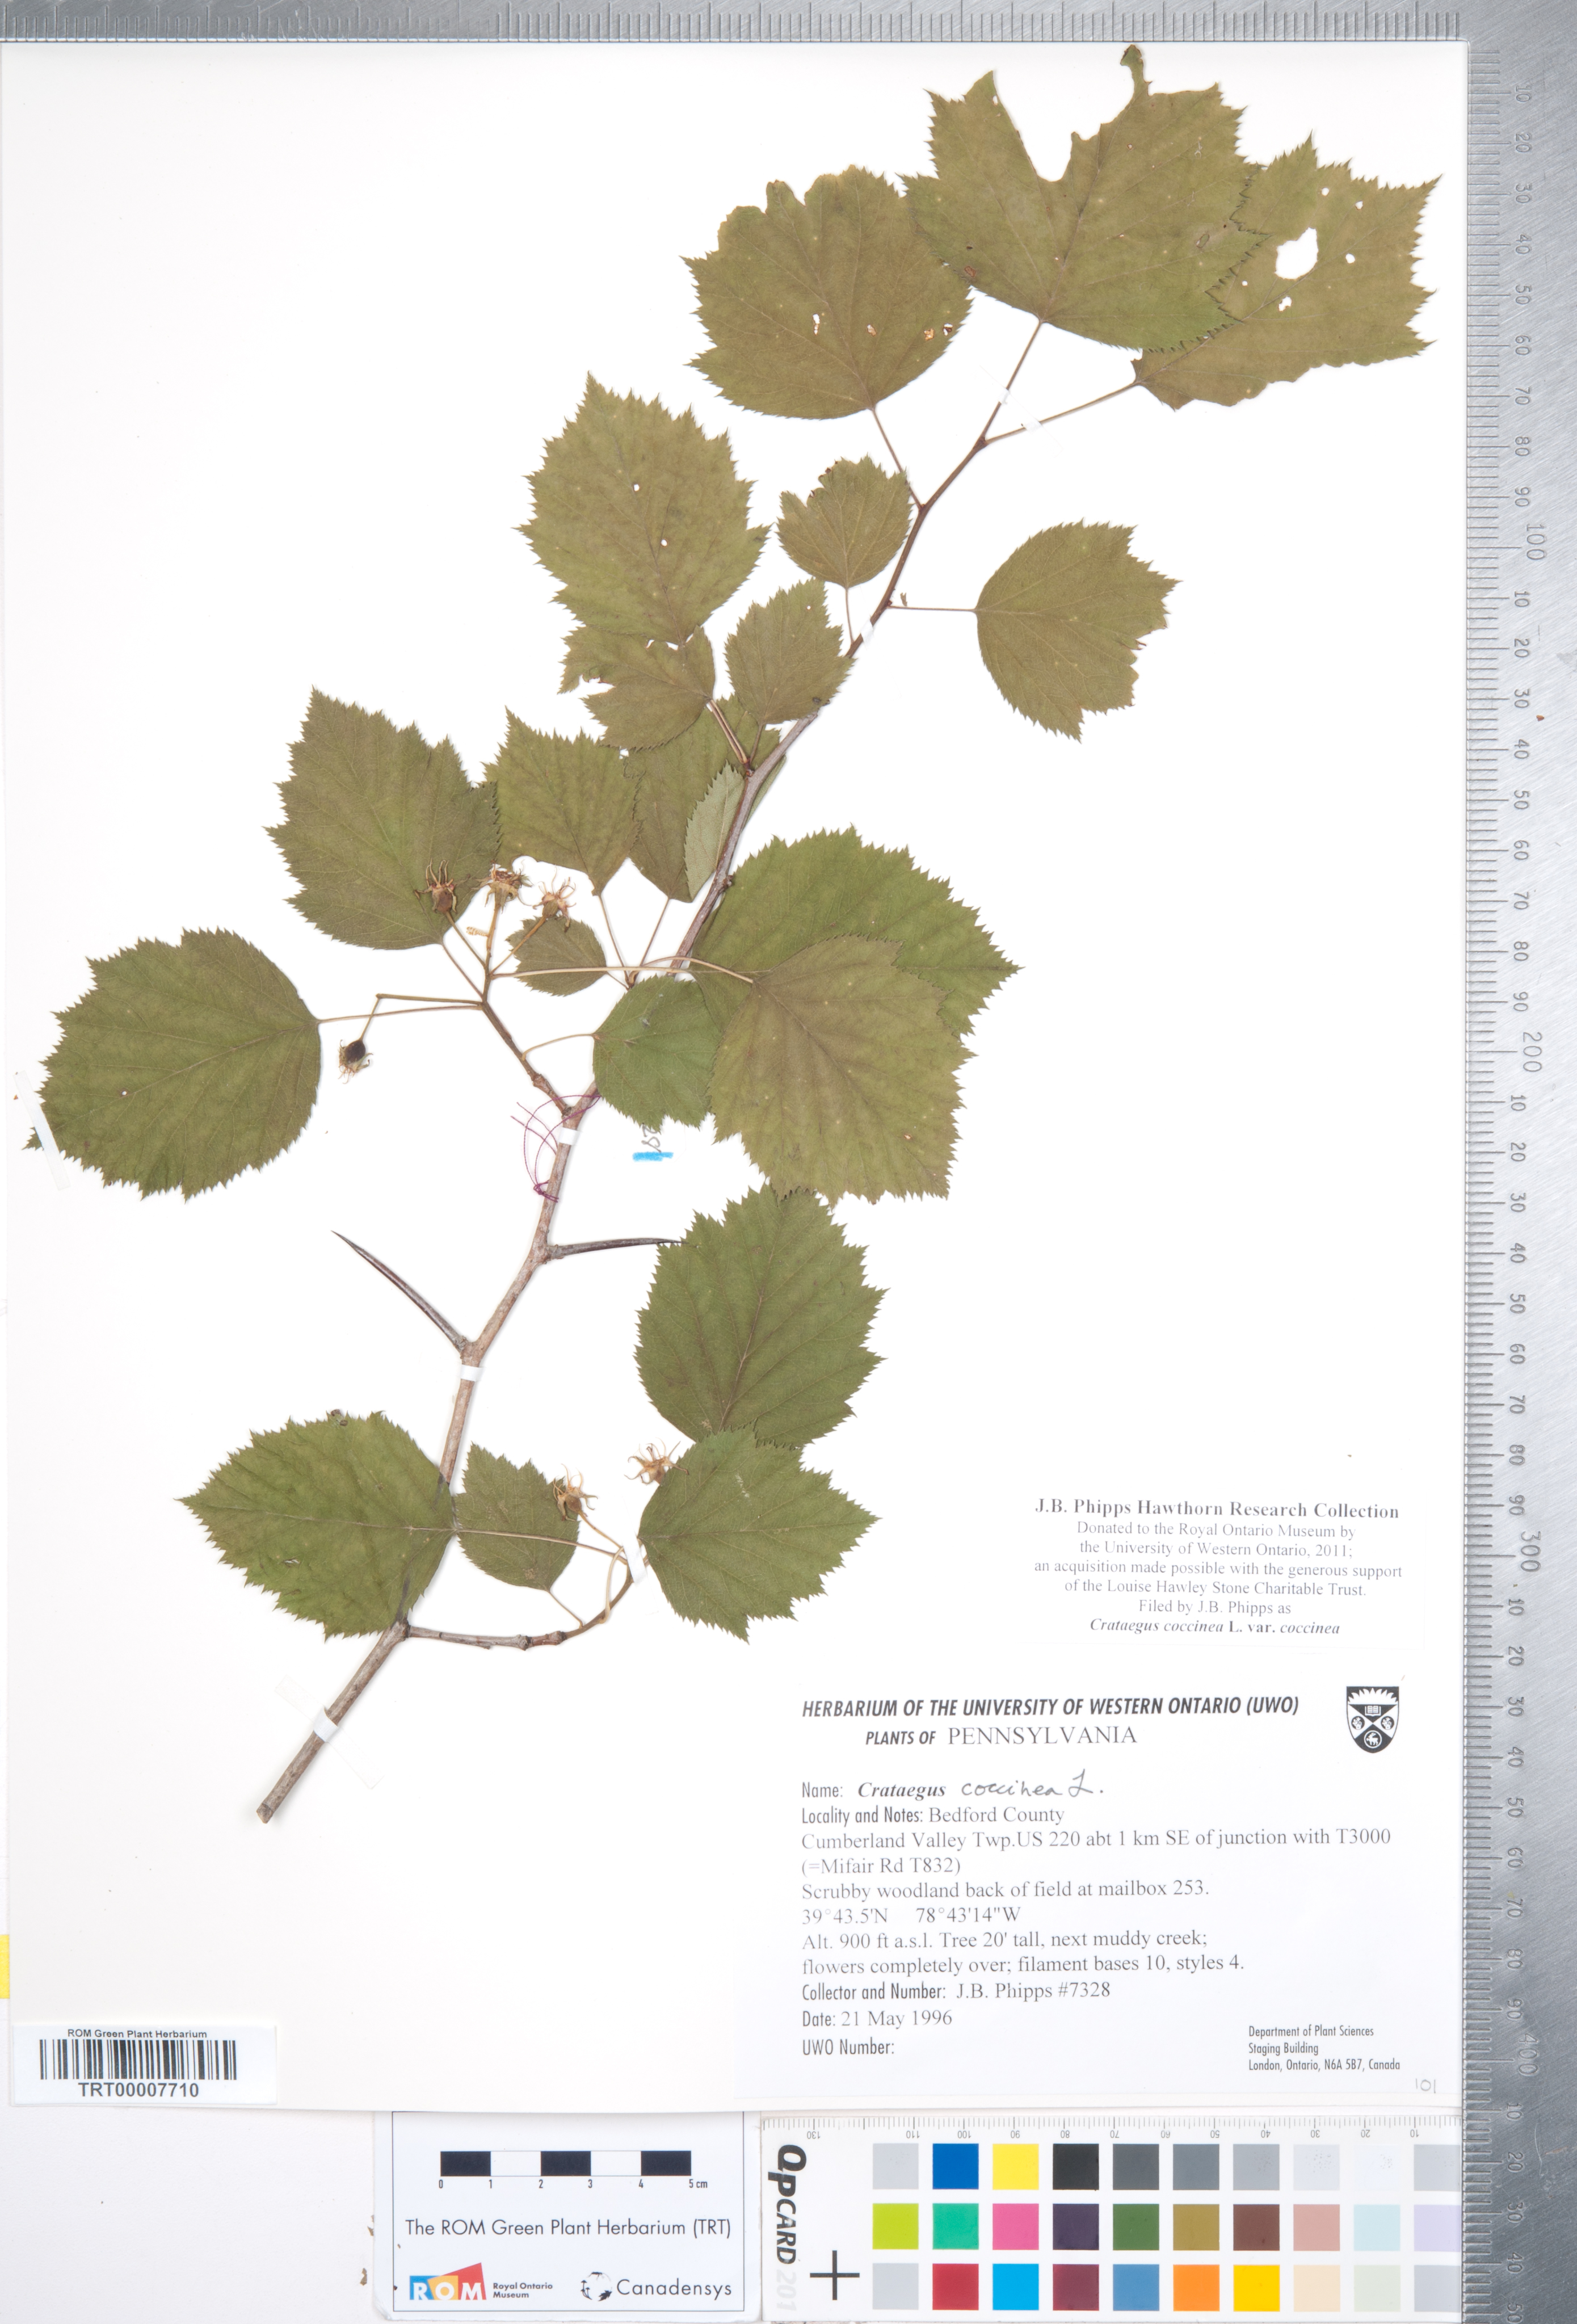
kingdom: Plantae
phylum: Tracheophyta
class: Magnoliopsida
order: Rosales
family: Rosaceae
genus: Crataegus
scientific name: Crataegus coccinea
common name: Scarlet hawthorn
